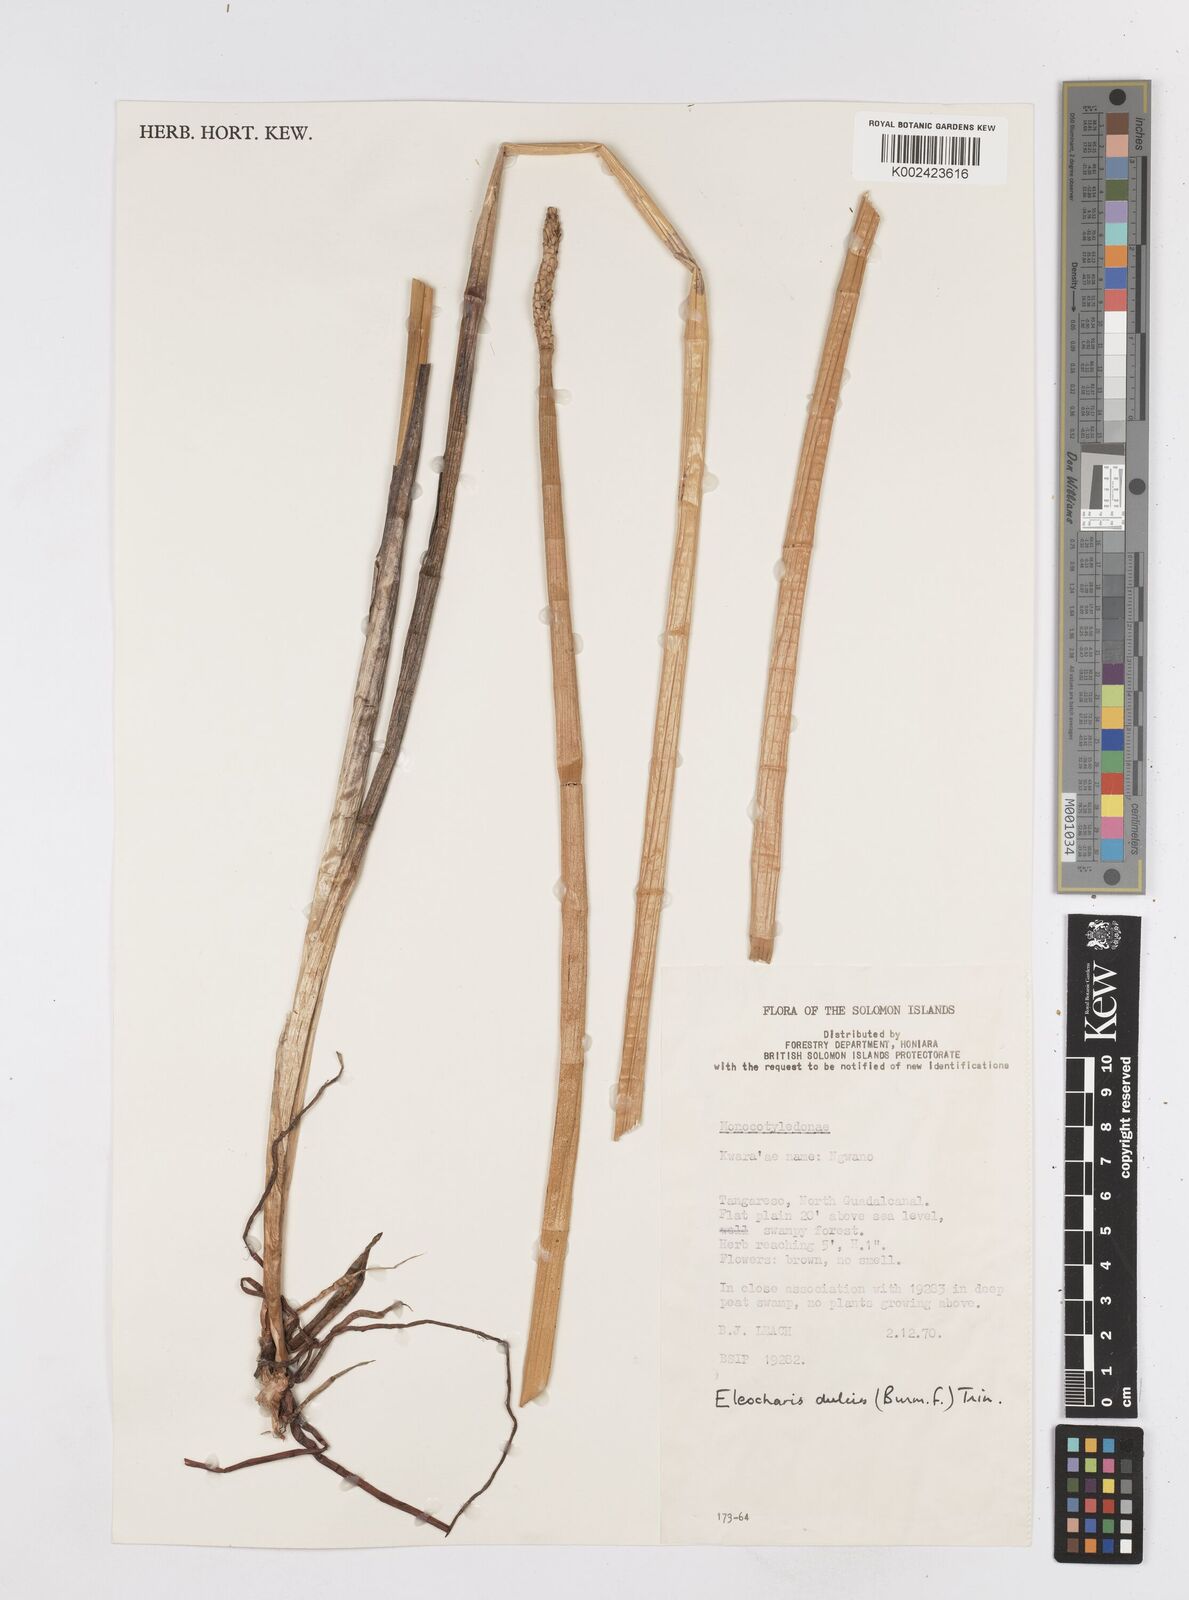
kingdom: Plantae
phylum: Tracheophyta
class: Liliopsida
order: Poales
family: Cyperaceae
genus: Eleocharis
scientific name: Eleocharis dulcis
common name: Chinese water chestnut
